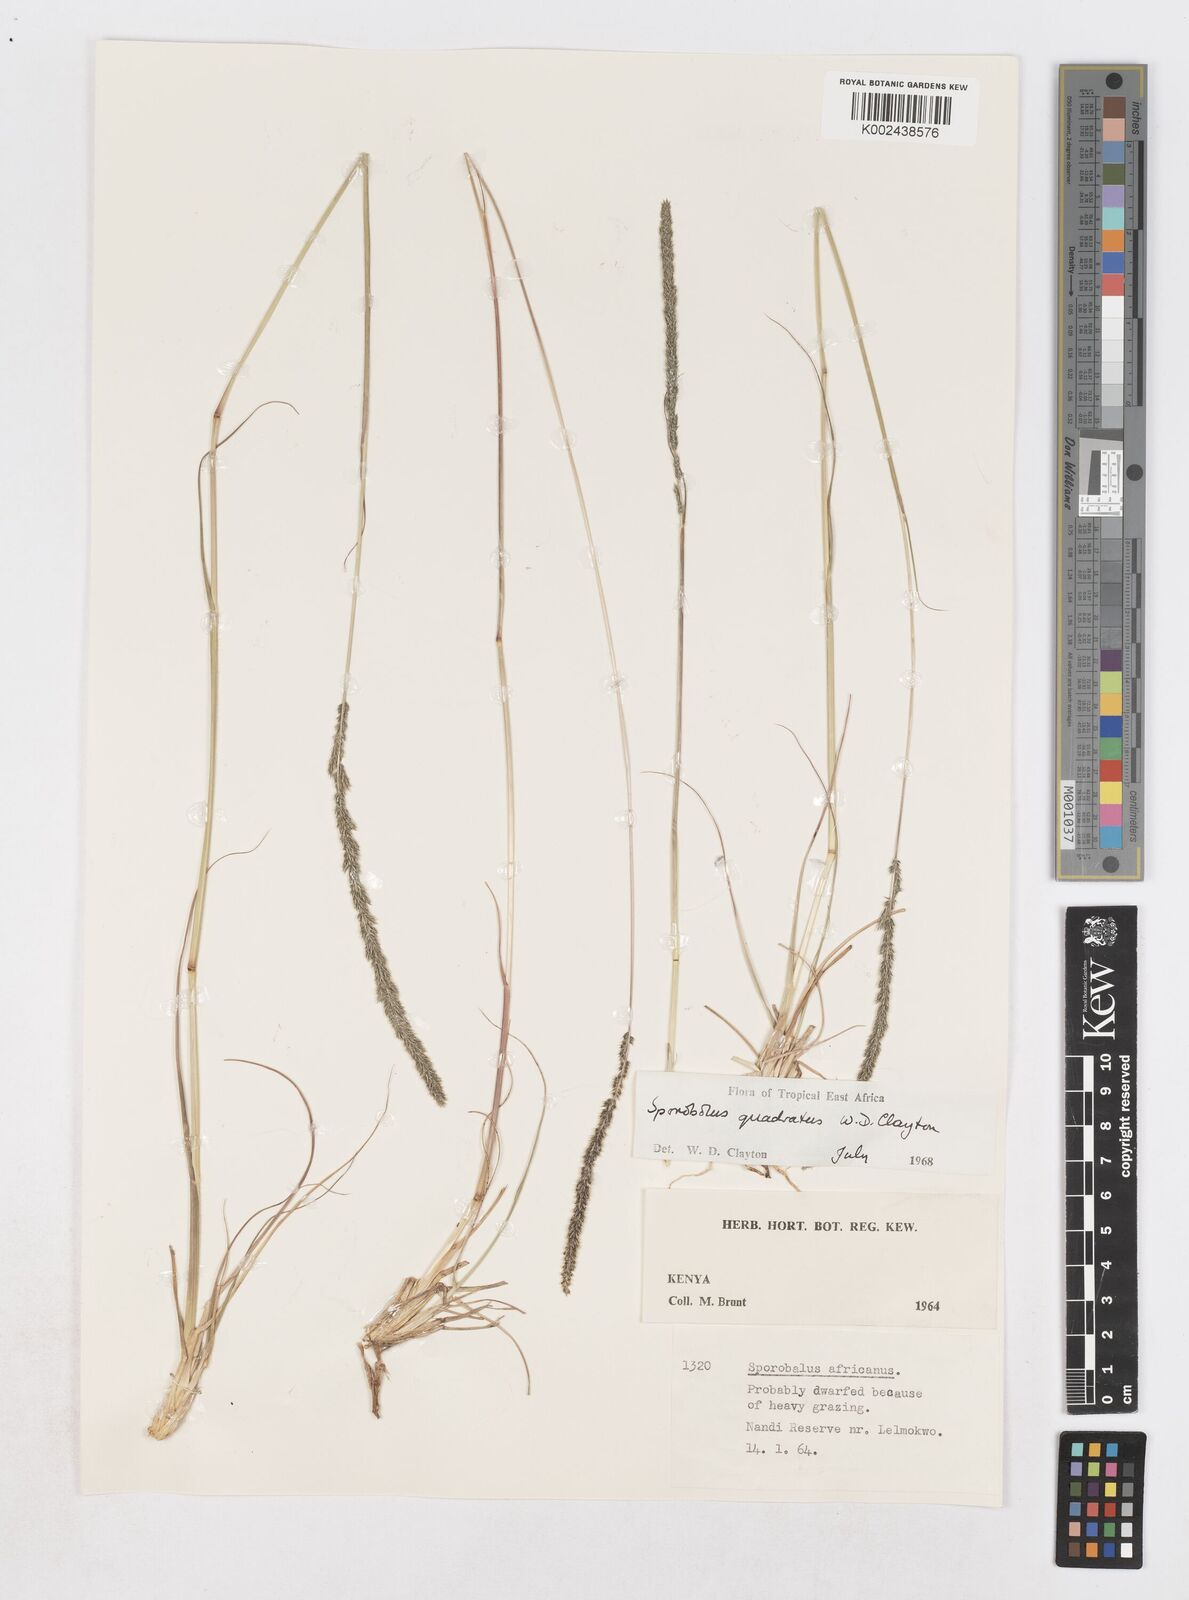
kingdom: Plantae
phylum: Tracheophyta
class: Liliopsida
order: Poales
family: Poaceae
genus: Sporobolus
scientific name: Sporobolus quadratus
